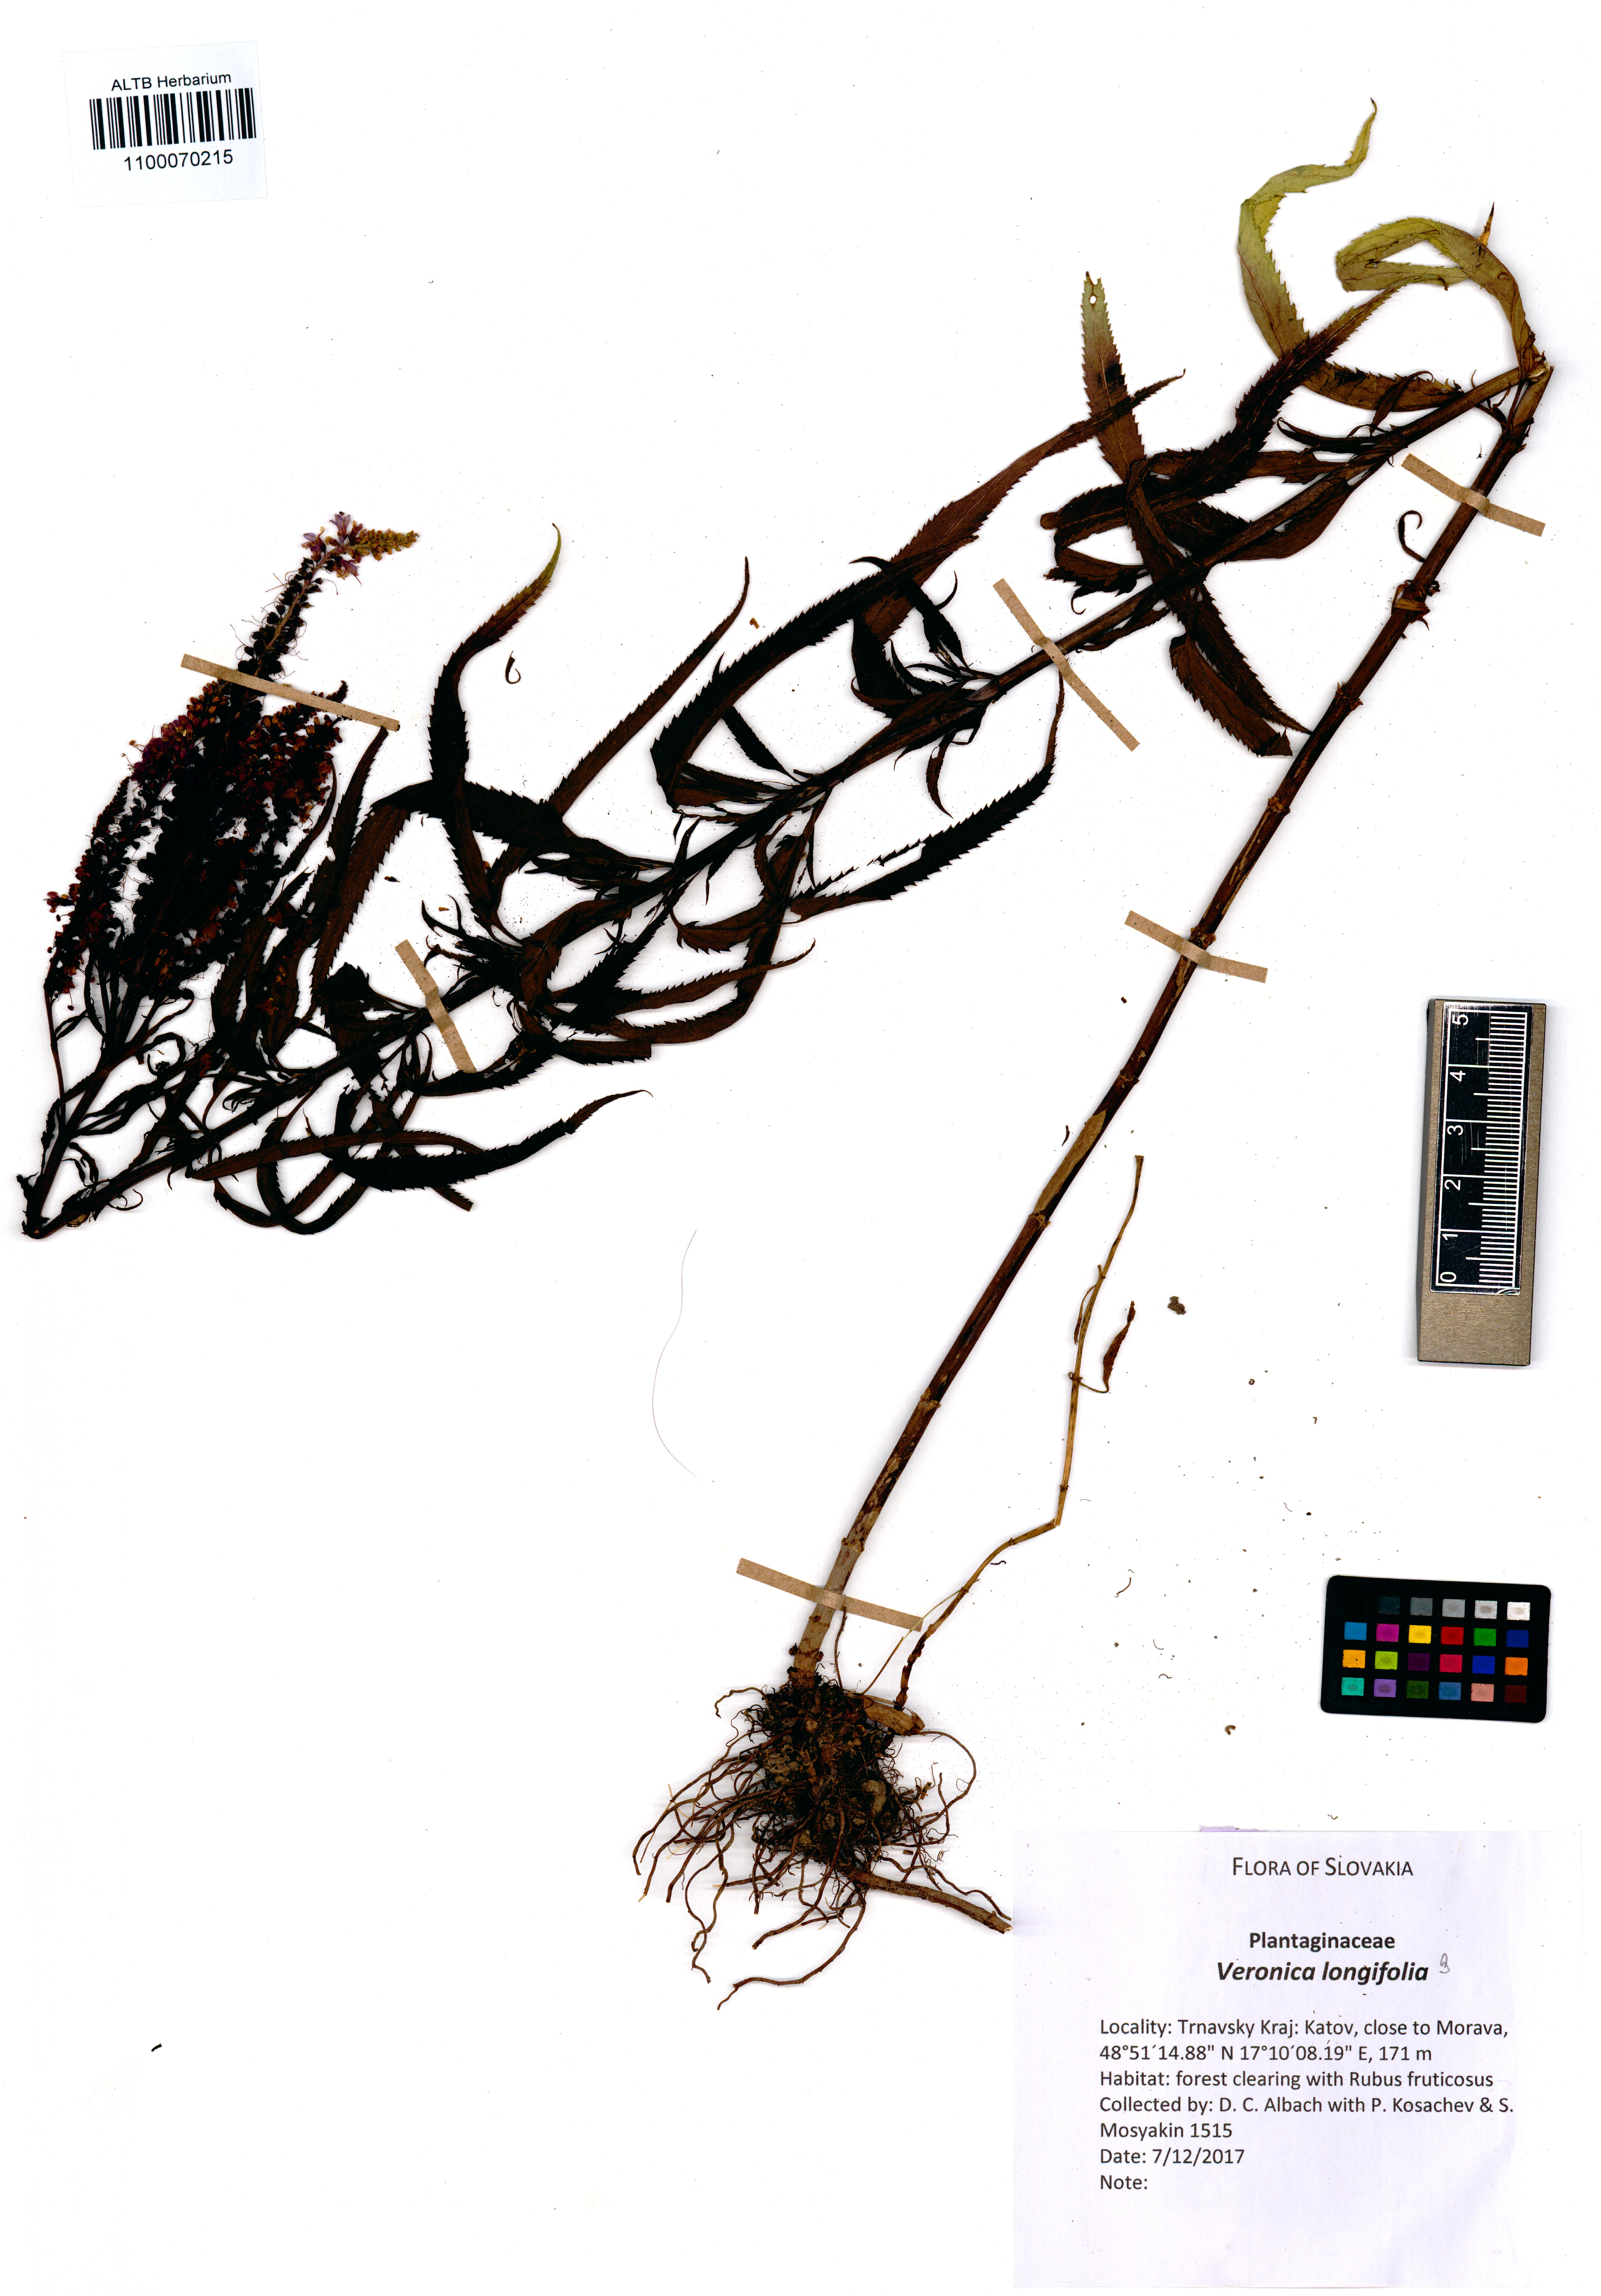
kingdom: Plantae
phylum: Tracheophyta
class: Magnoliopsida
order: Lamiales
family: Plantaginaceae
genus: Veronica
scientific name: Veronica longifolia
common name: Garden speedwell
